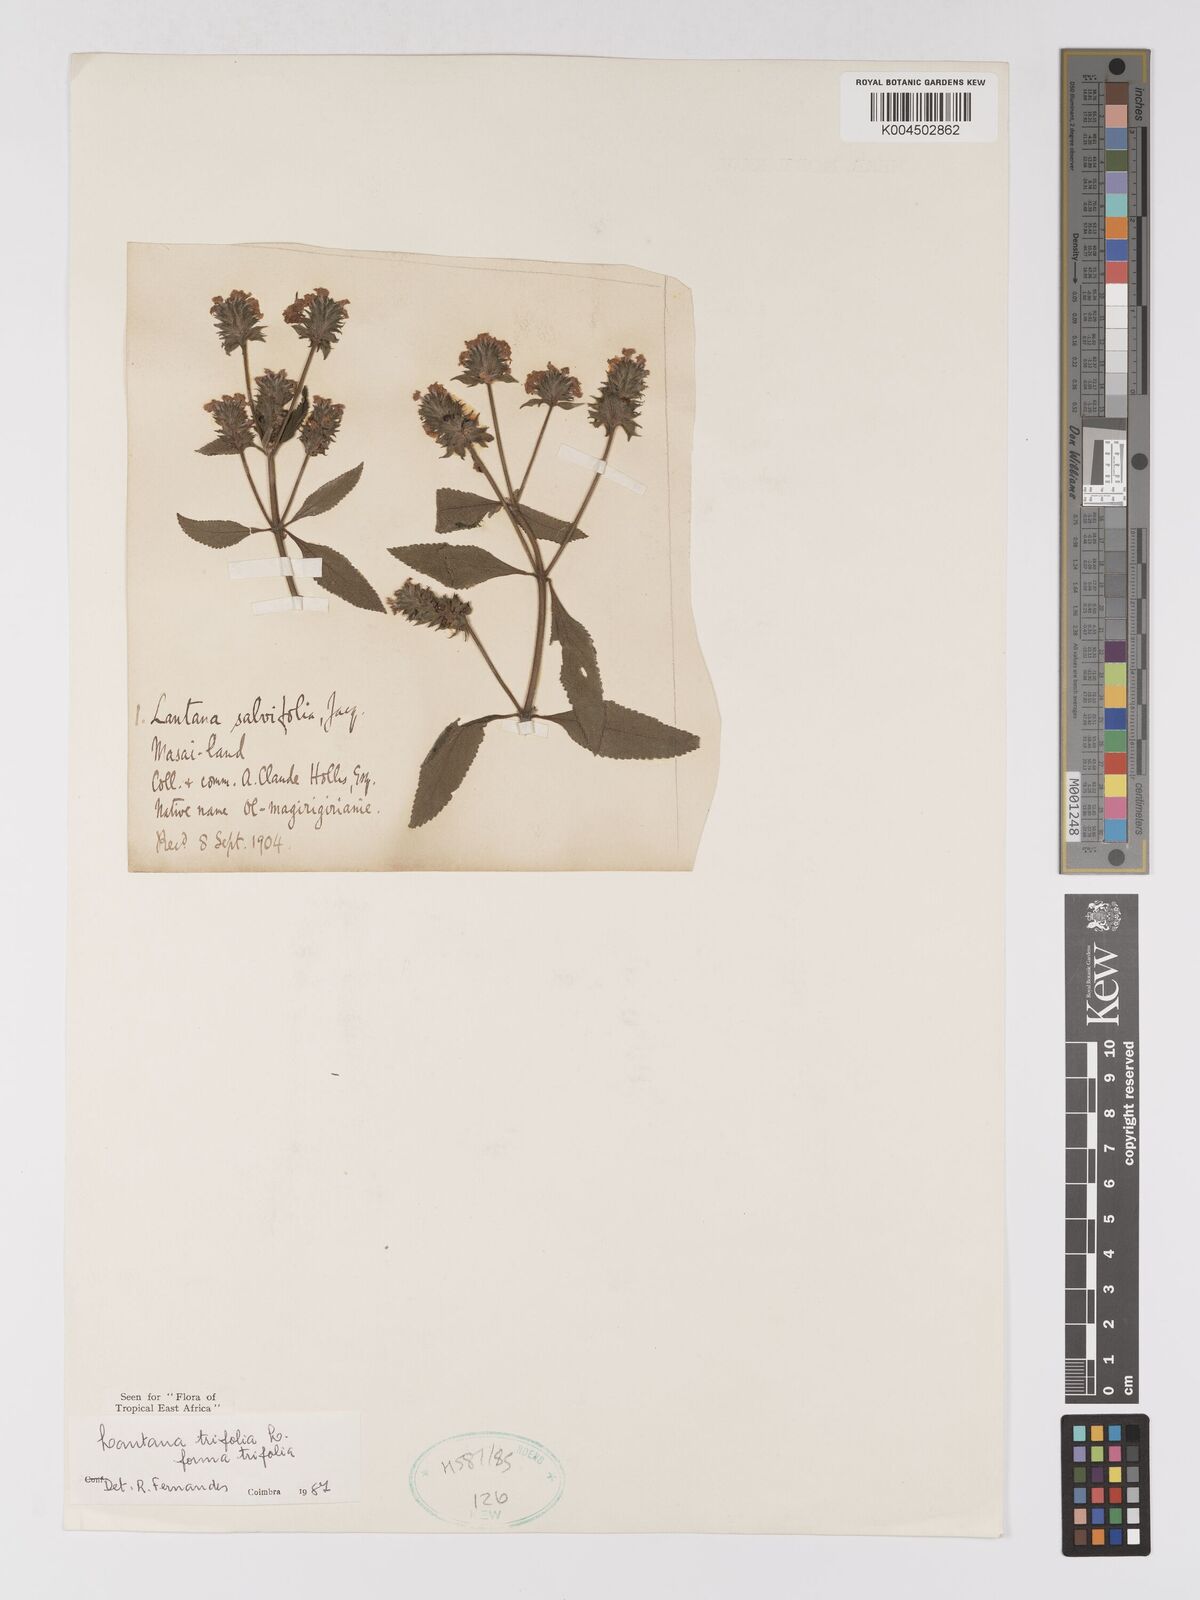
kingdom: Plantae
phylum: Tracheophyta
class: Magnoliopsida
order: Lamiales
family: Verbenaceae
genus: Lantana
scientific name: Lantana trifolia
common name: Sweet-sage
